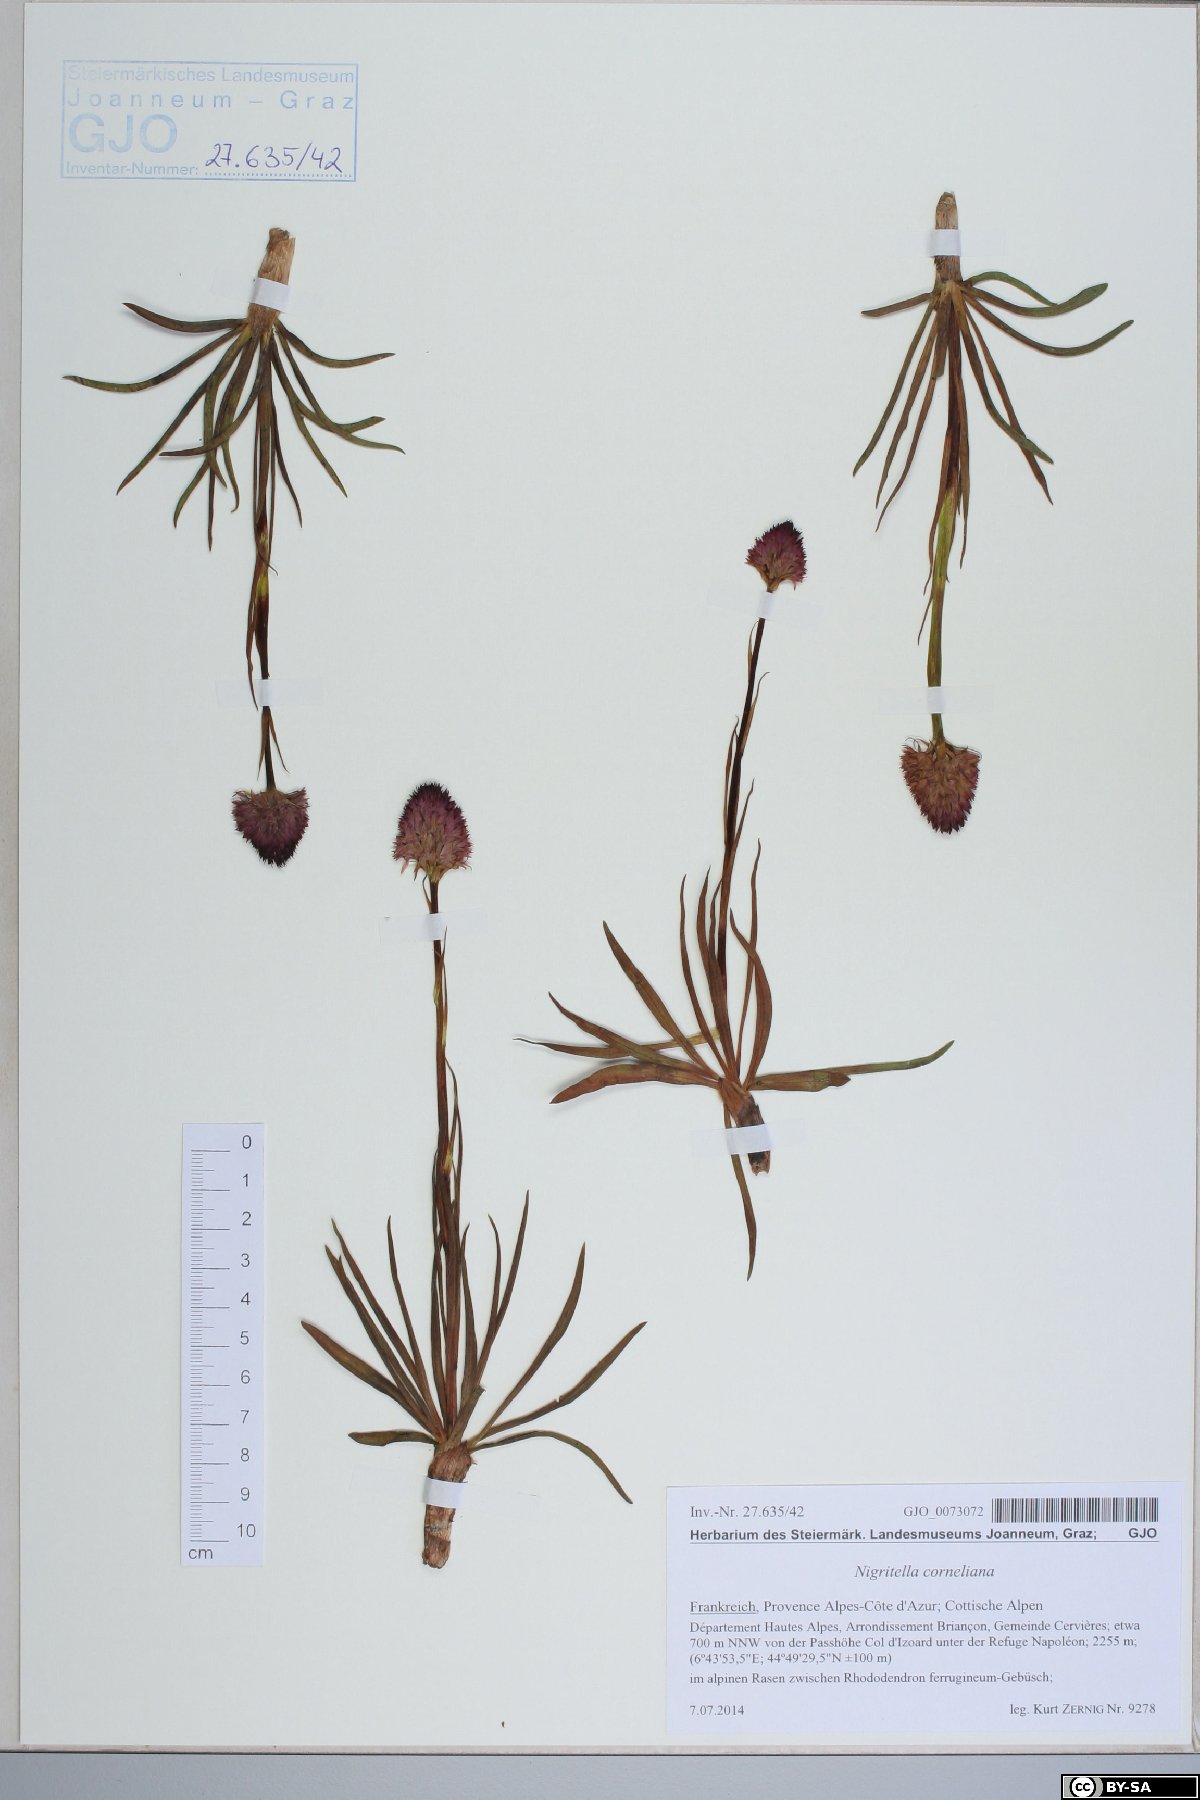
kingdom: Plantae
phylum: Tracheophyta
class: Liliopsida
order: Asparagales
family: Orchidaceae
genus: Gymnadenia
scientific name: Gymnadenia corneliana
